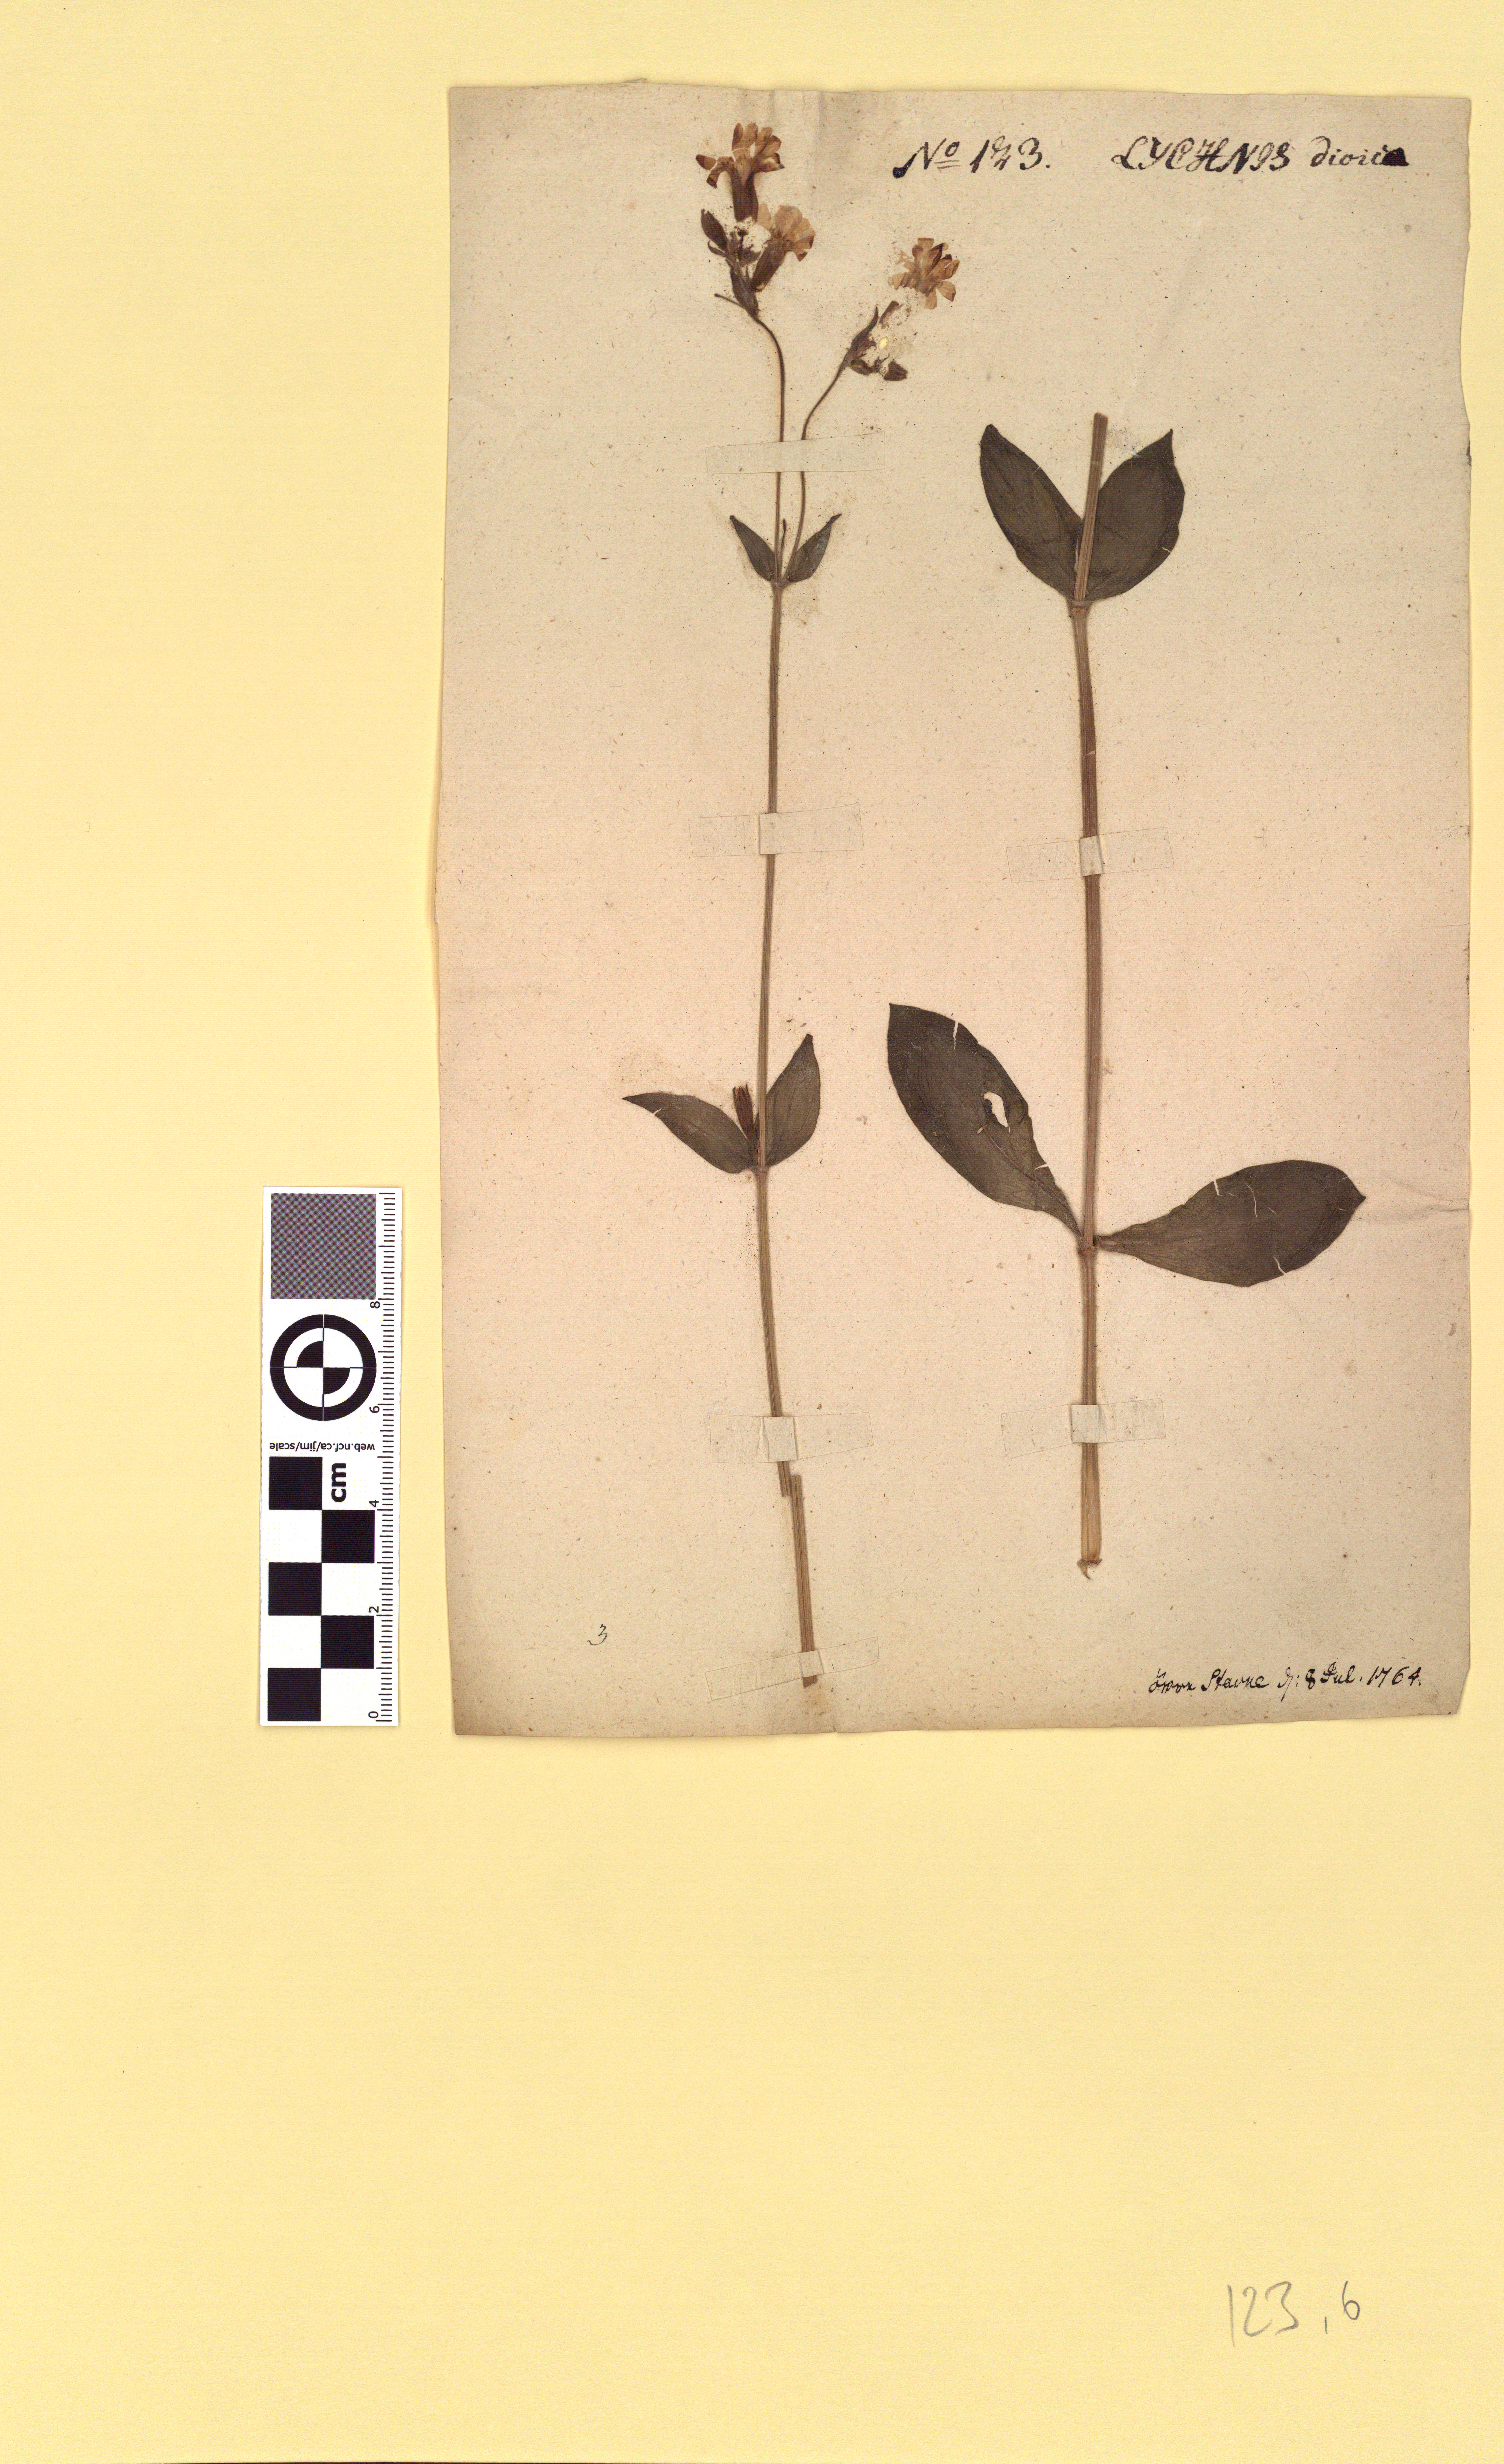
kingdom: Plantae
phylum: Tracheophyta
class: Magnoliopsida
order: Caryophyllales
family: Caryophyllaceae
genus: Silene
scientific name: Silene dioica
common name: Red campion
